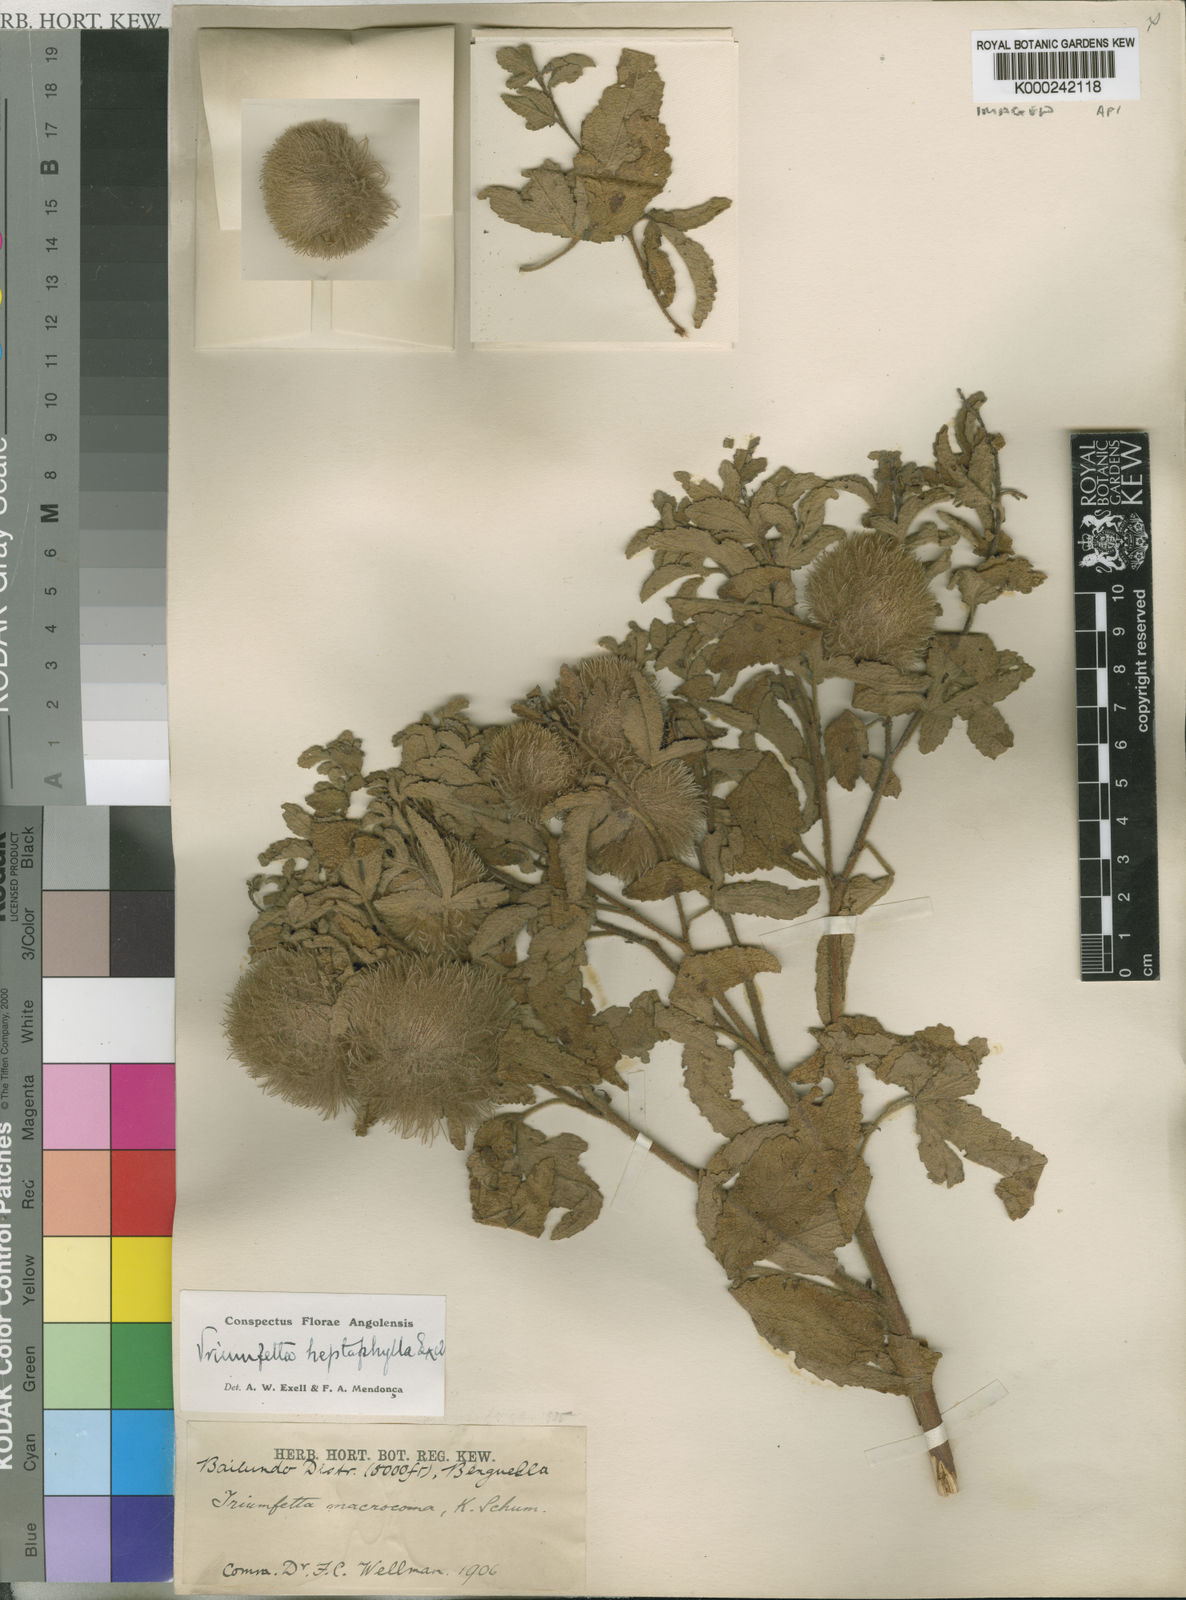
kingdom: Plantae
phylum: Tracheophyta
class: Magnoliopsida
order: Malvales
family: Malvaceae
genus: Triumfetta
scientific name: Triumfetta heptaphylla
